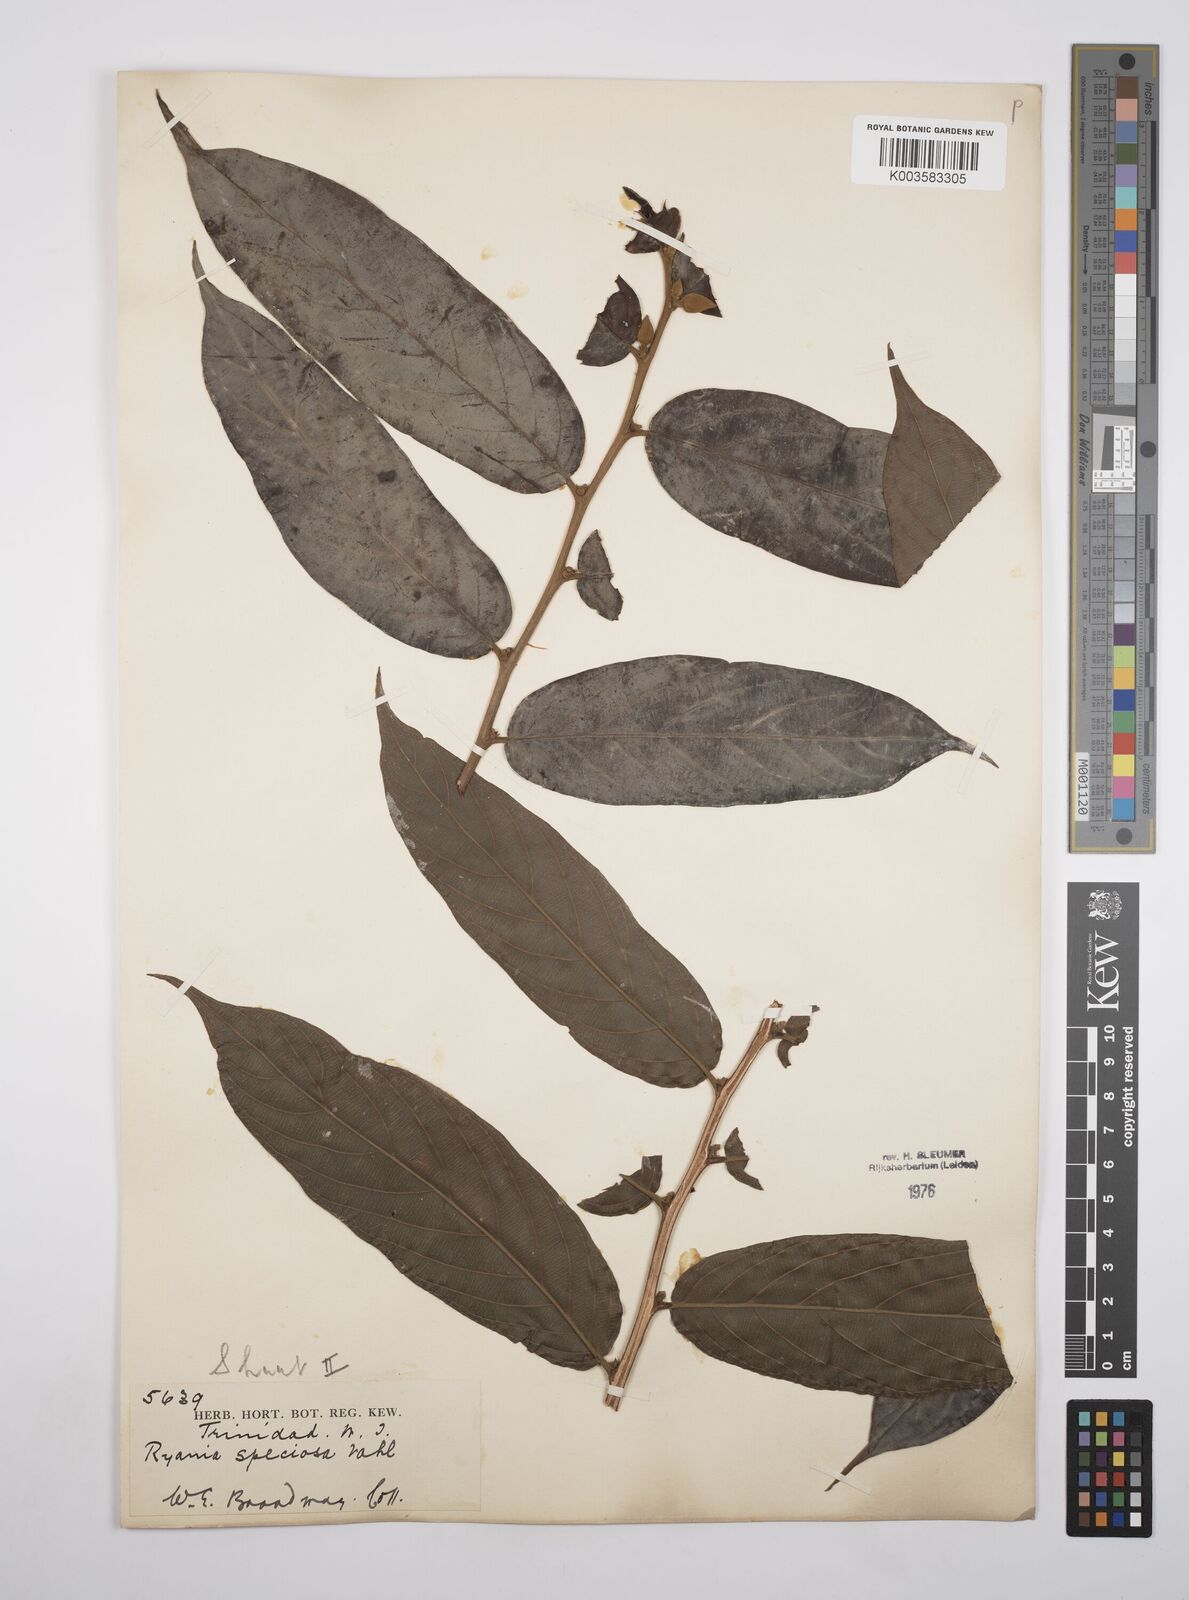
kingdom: Plantae
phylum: Tracheophyta
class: Magnoliopsida
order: Malpighiales
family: Salicaceae
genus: Ryania
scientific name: Ryania speciosa
